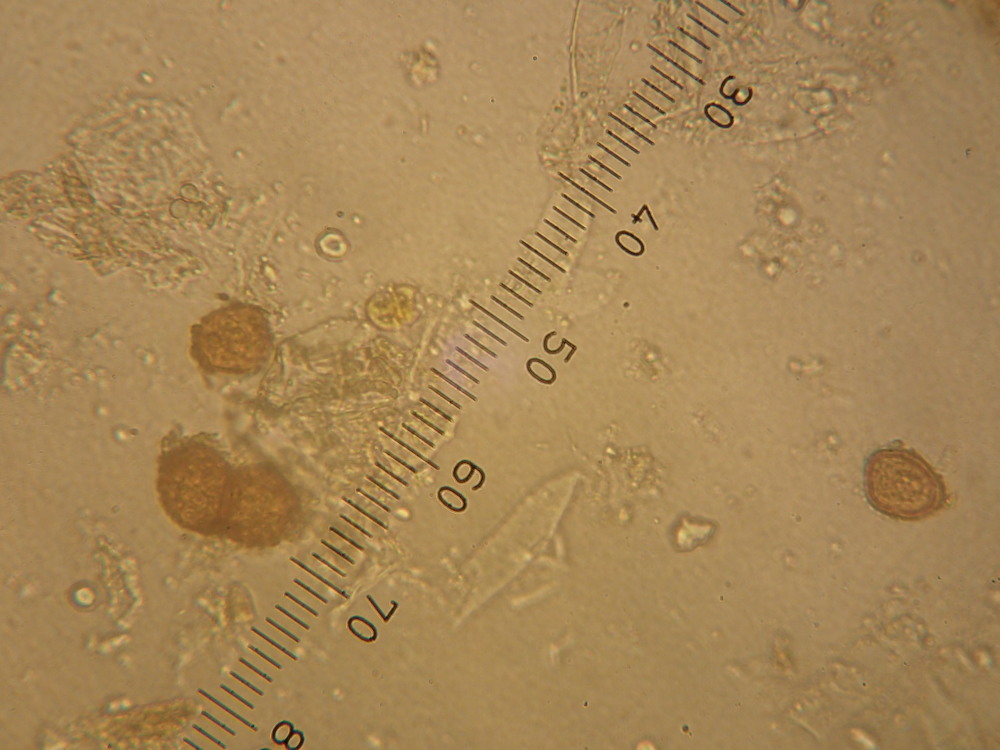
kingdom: Fungi
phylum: Basidiomycota
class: Pucciniomycetes
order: Pucciniales
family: Pucciniaceae
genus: Uromyces
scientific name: Uromyces anthyllidis
